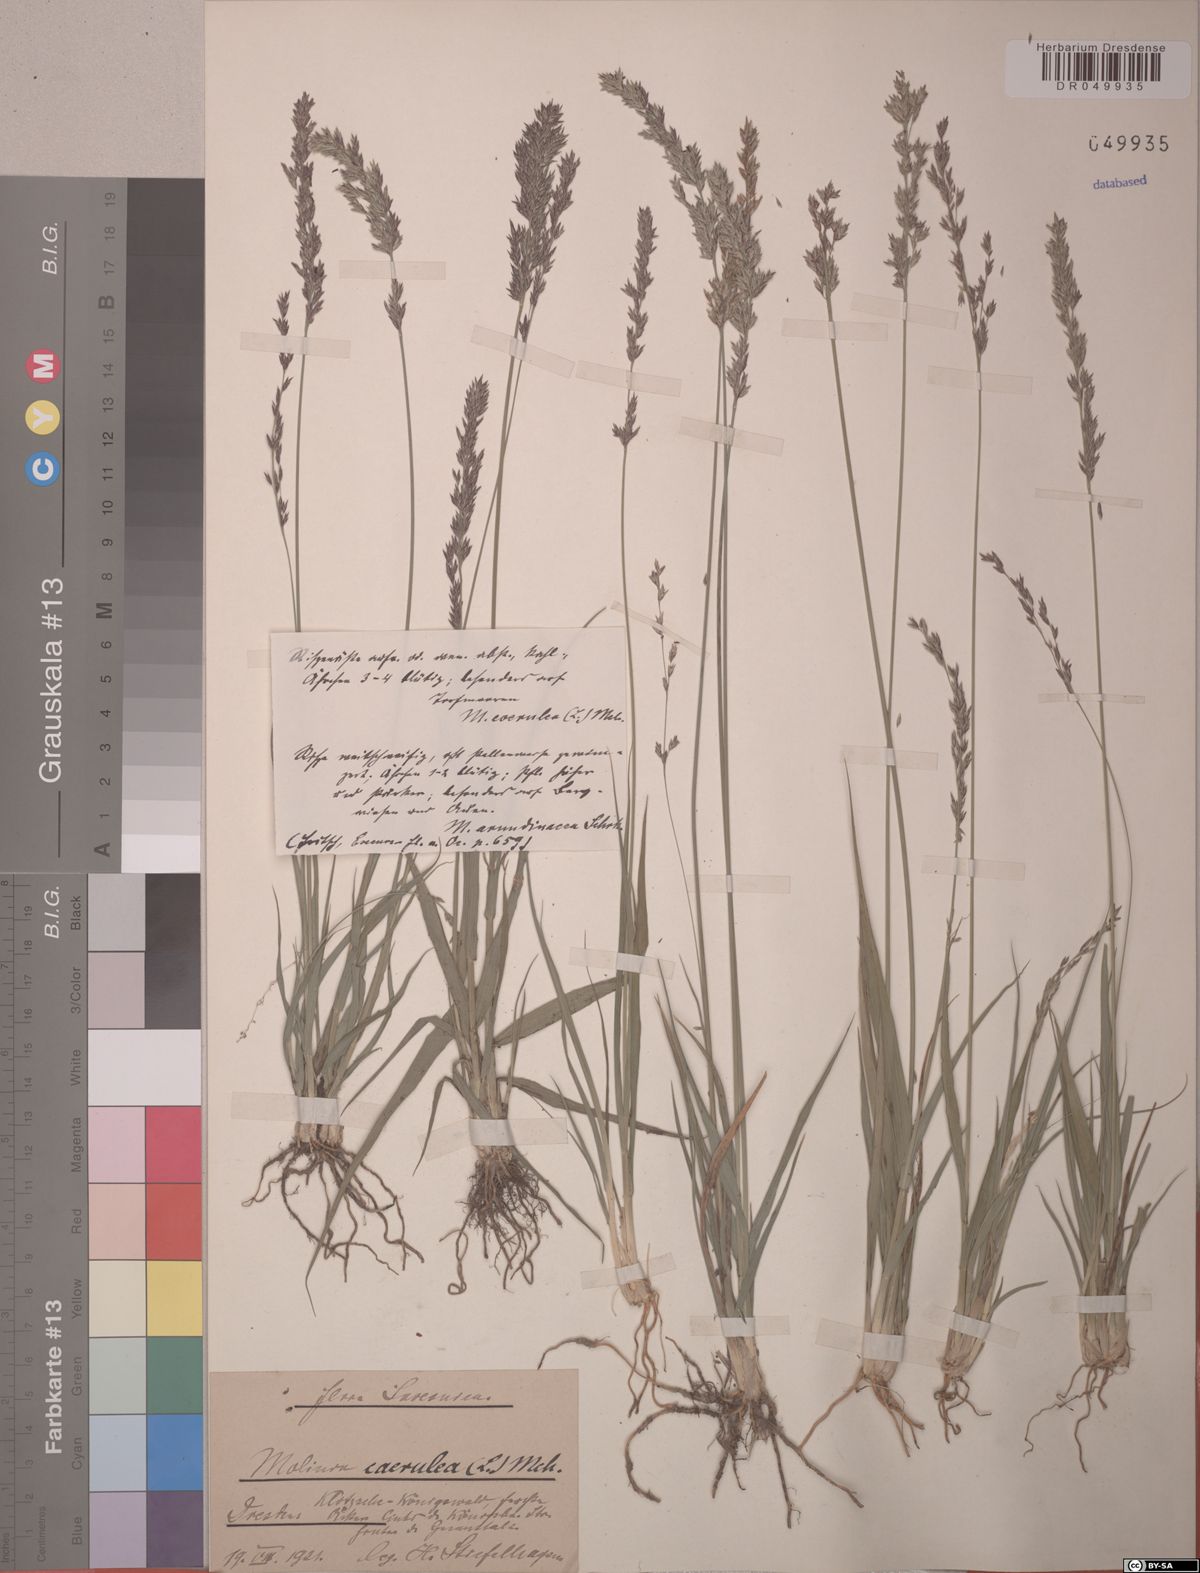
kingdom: Plantae
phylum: Tracheophyta
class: Liliopsida
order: Poales
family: Poaceae
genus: Molinia
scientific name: Molinia caerulea
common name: Purple moor-grass
